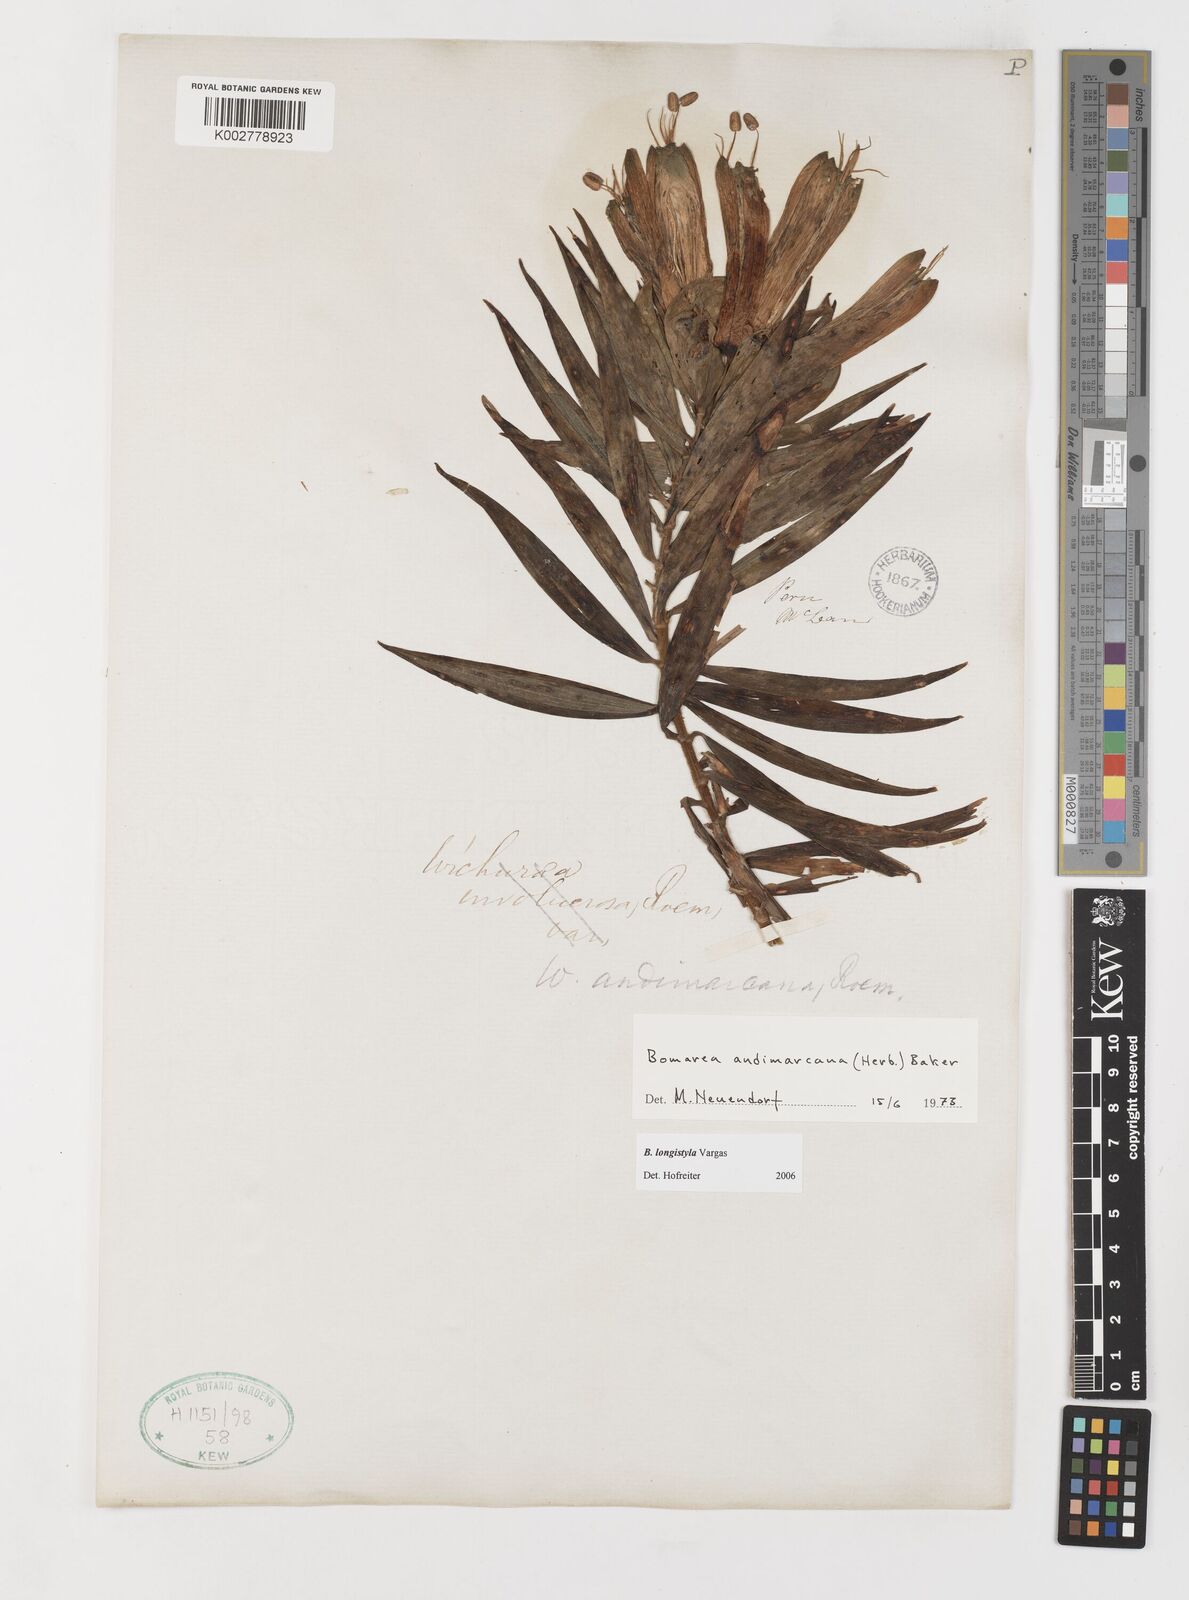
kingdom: Plantae
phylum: Tracheophyta
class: Liliopsida
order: Liliales
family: Alstroemeriaceae
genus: Bomarea
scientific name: Bomarea longistyla
